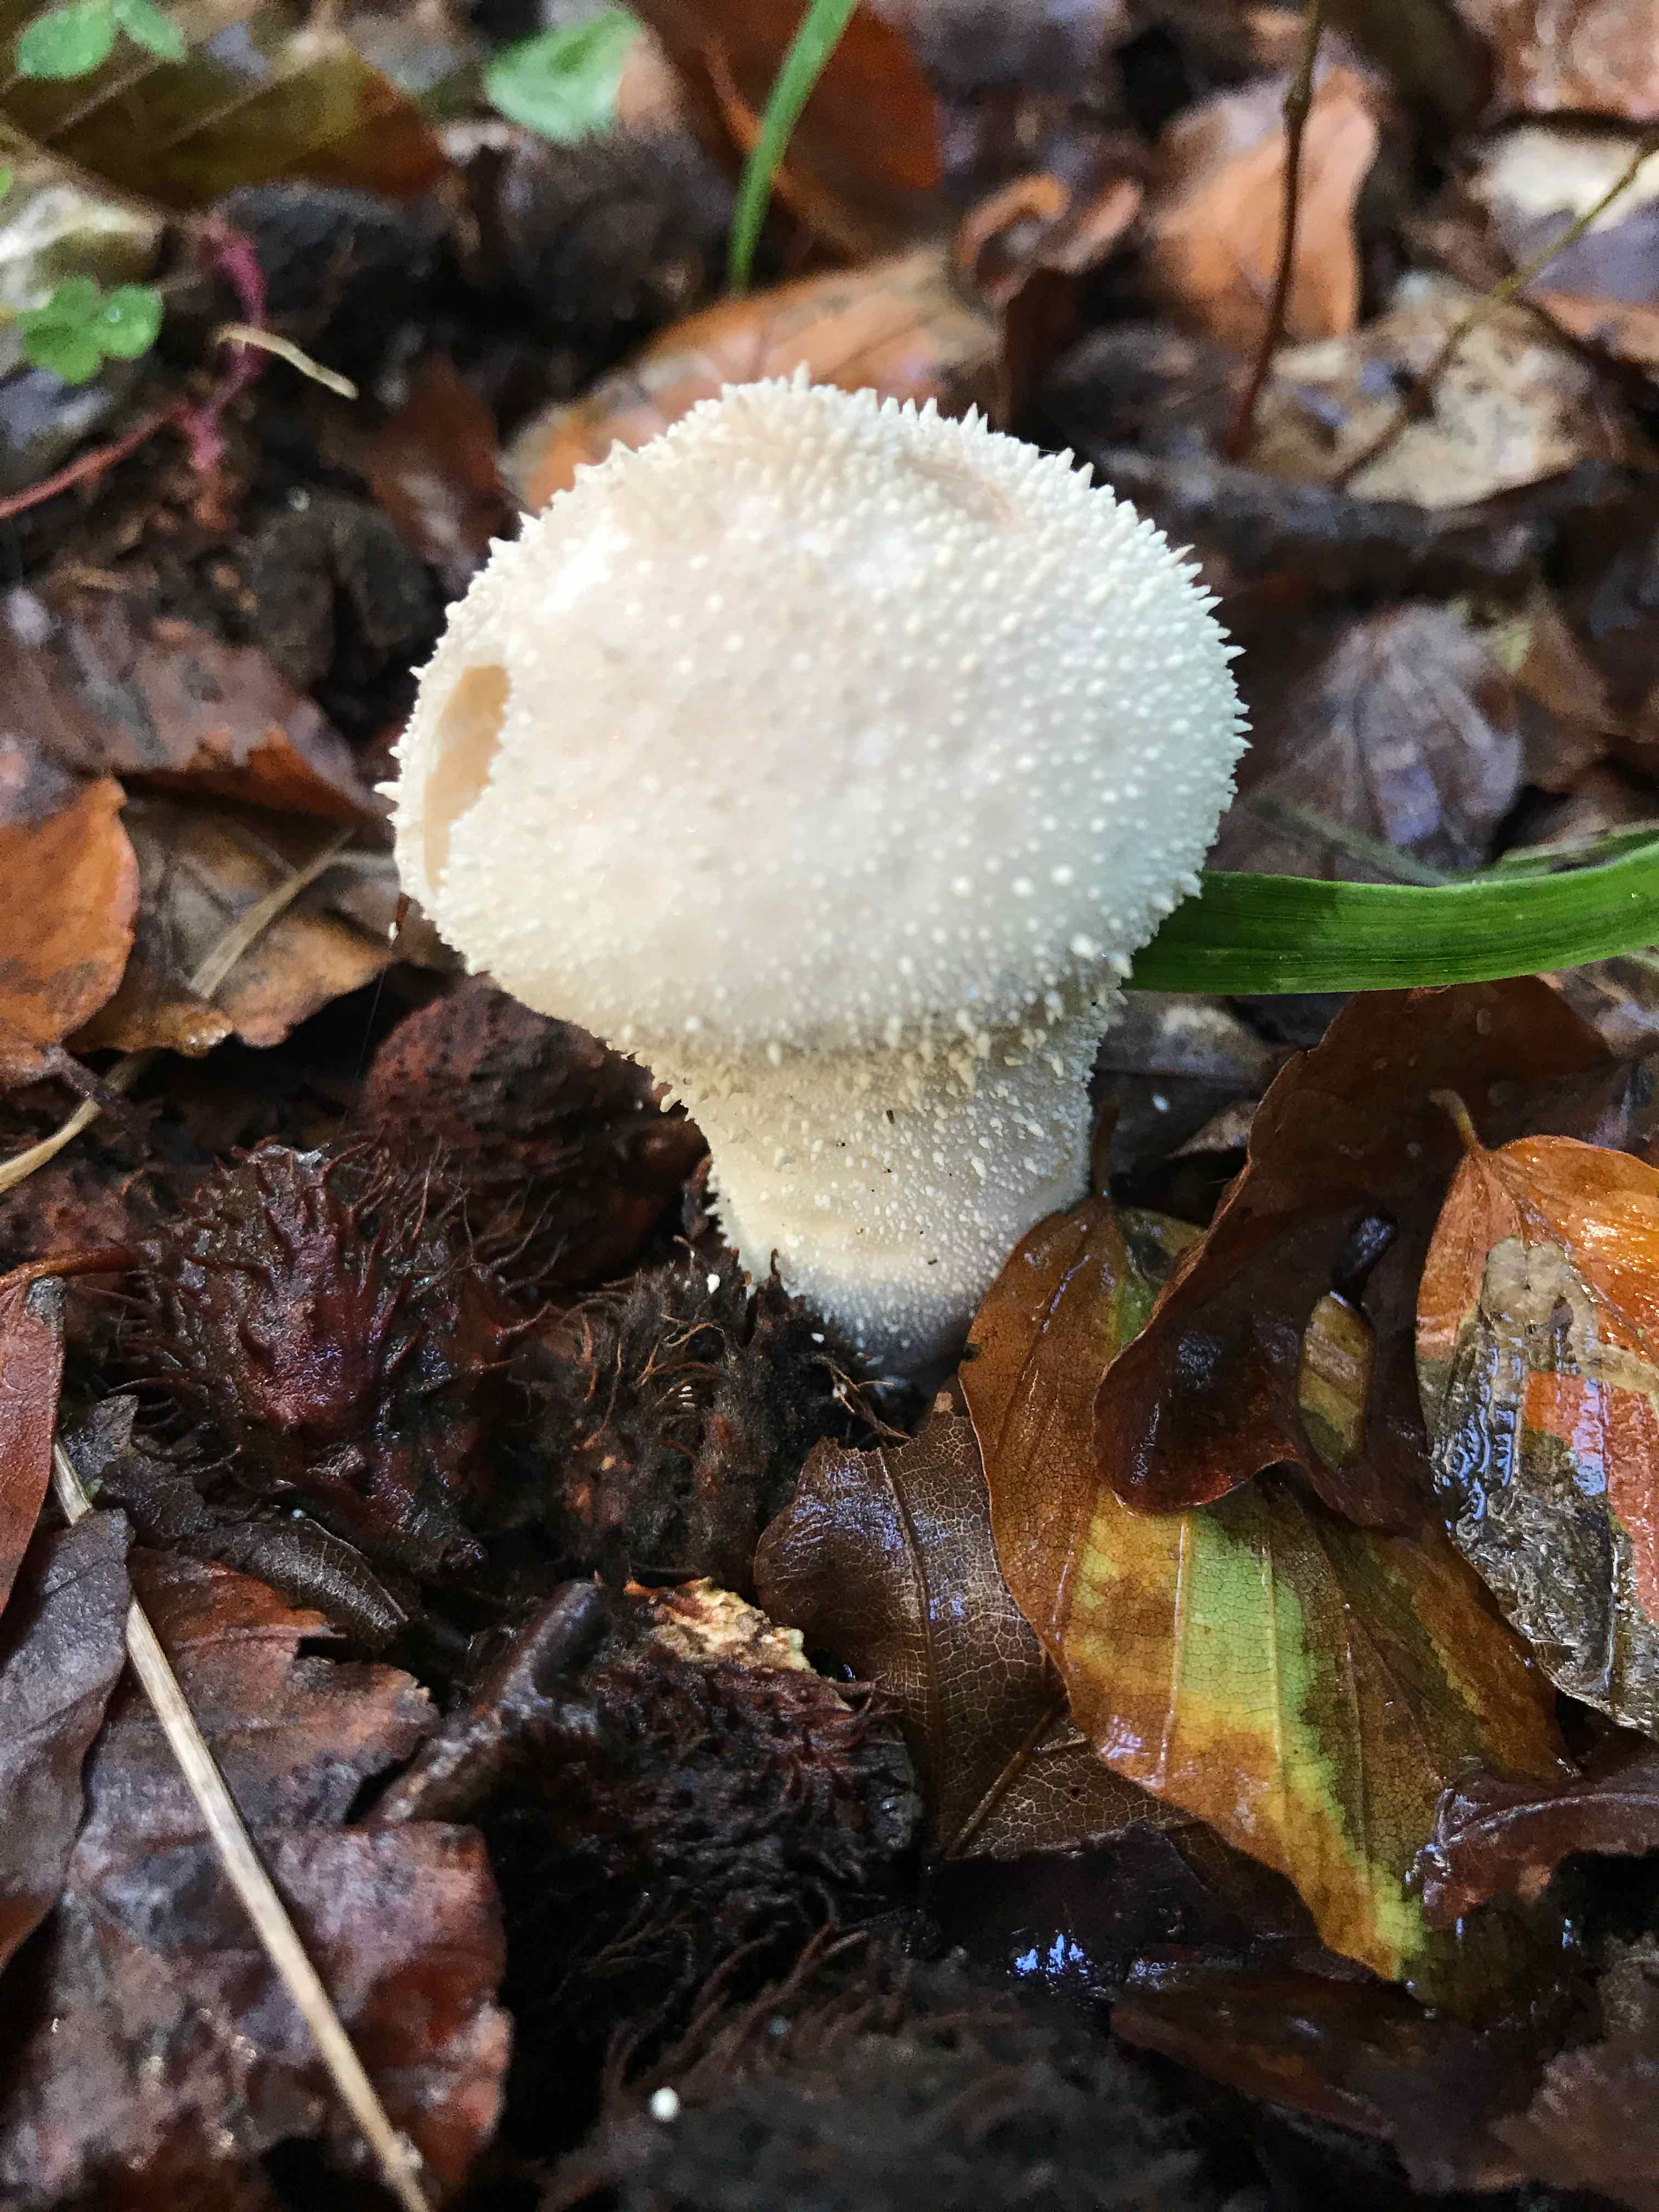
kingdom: Fungi
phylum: Basidiomycota
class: Agaricomycetes
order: Agaricales
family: Lycoperdaceae
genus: Lycoperdon
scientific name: Lycoperdon perlatum
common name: krystal-støvbold
